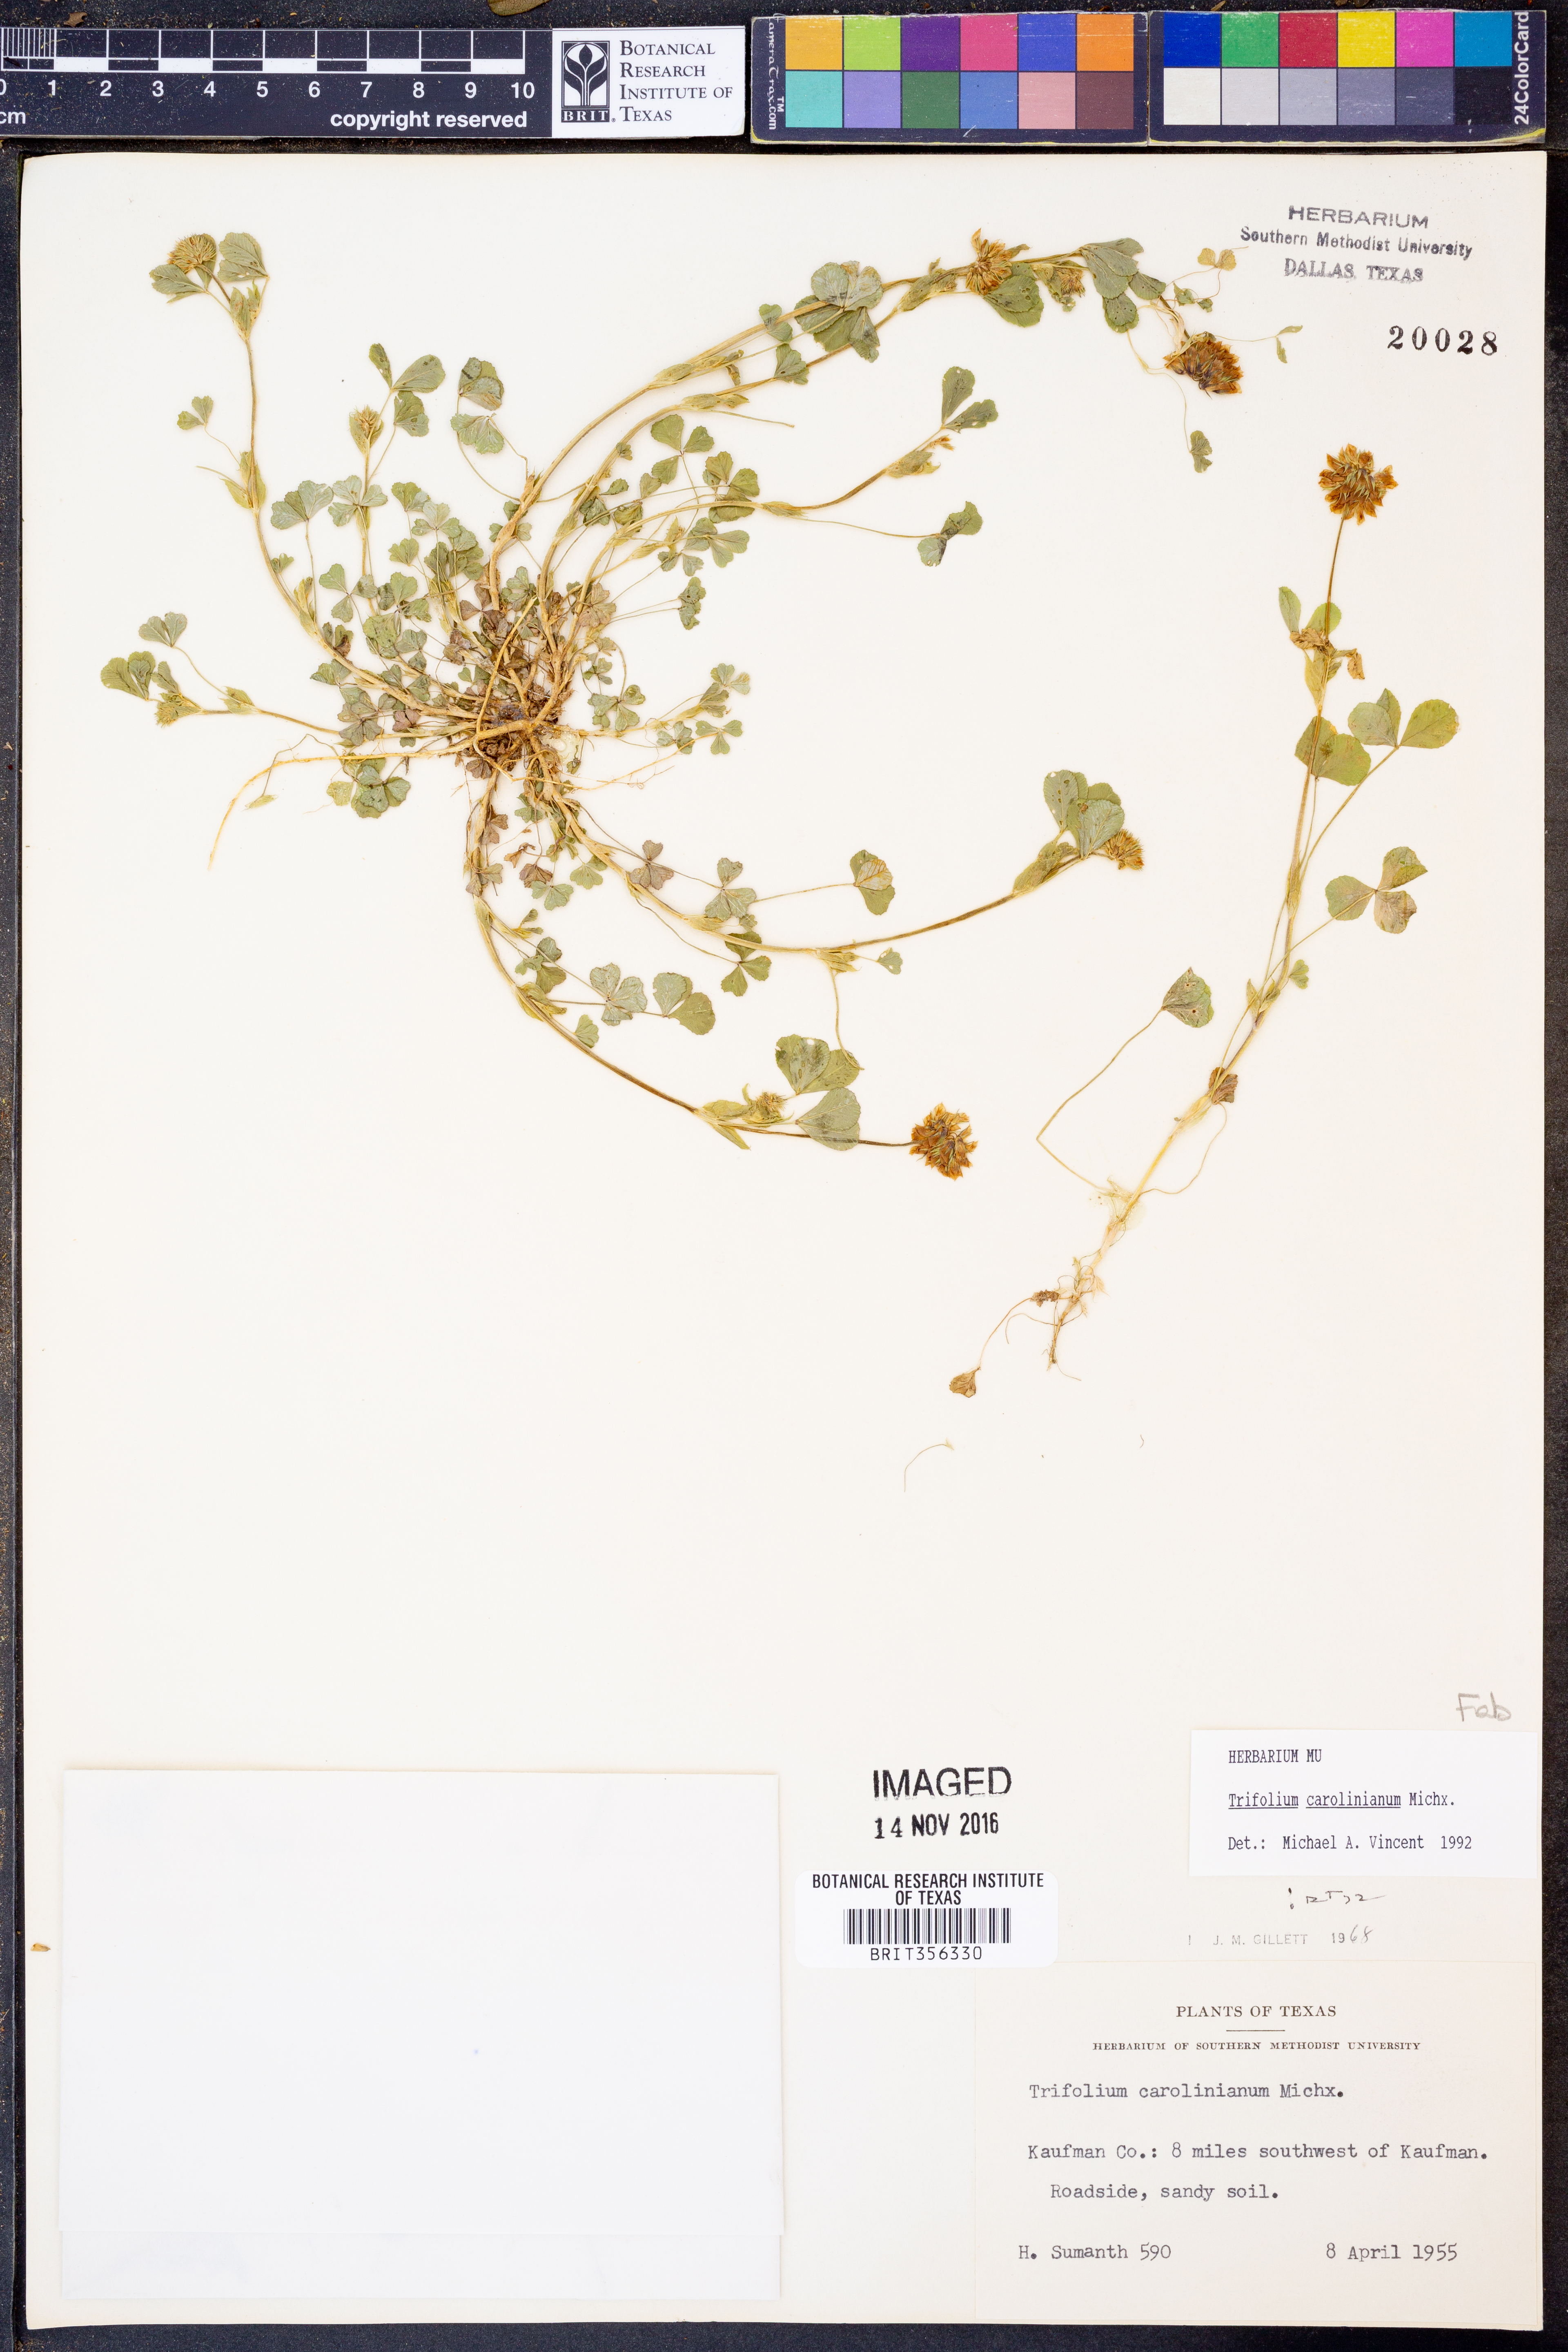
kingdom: Plantae
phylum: Tracheophyta
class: Magnoliopsida
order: Fabales
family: Fabaceae
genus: Trifolium
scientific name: Trifolium carolinianum
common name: Wild white clover
